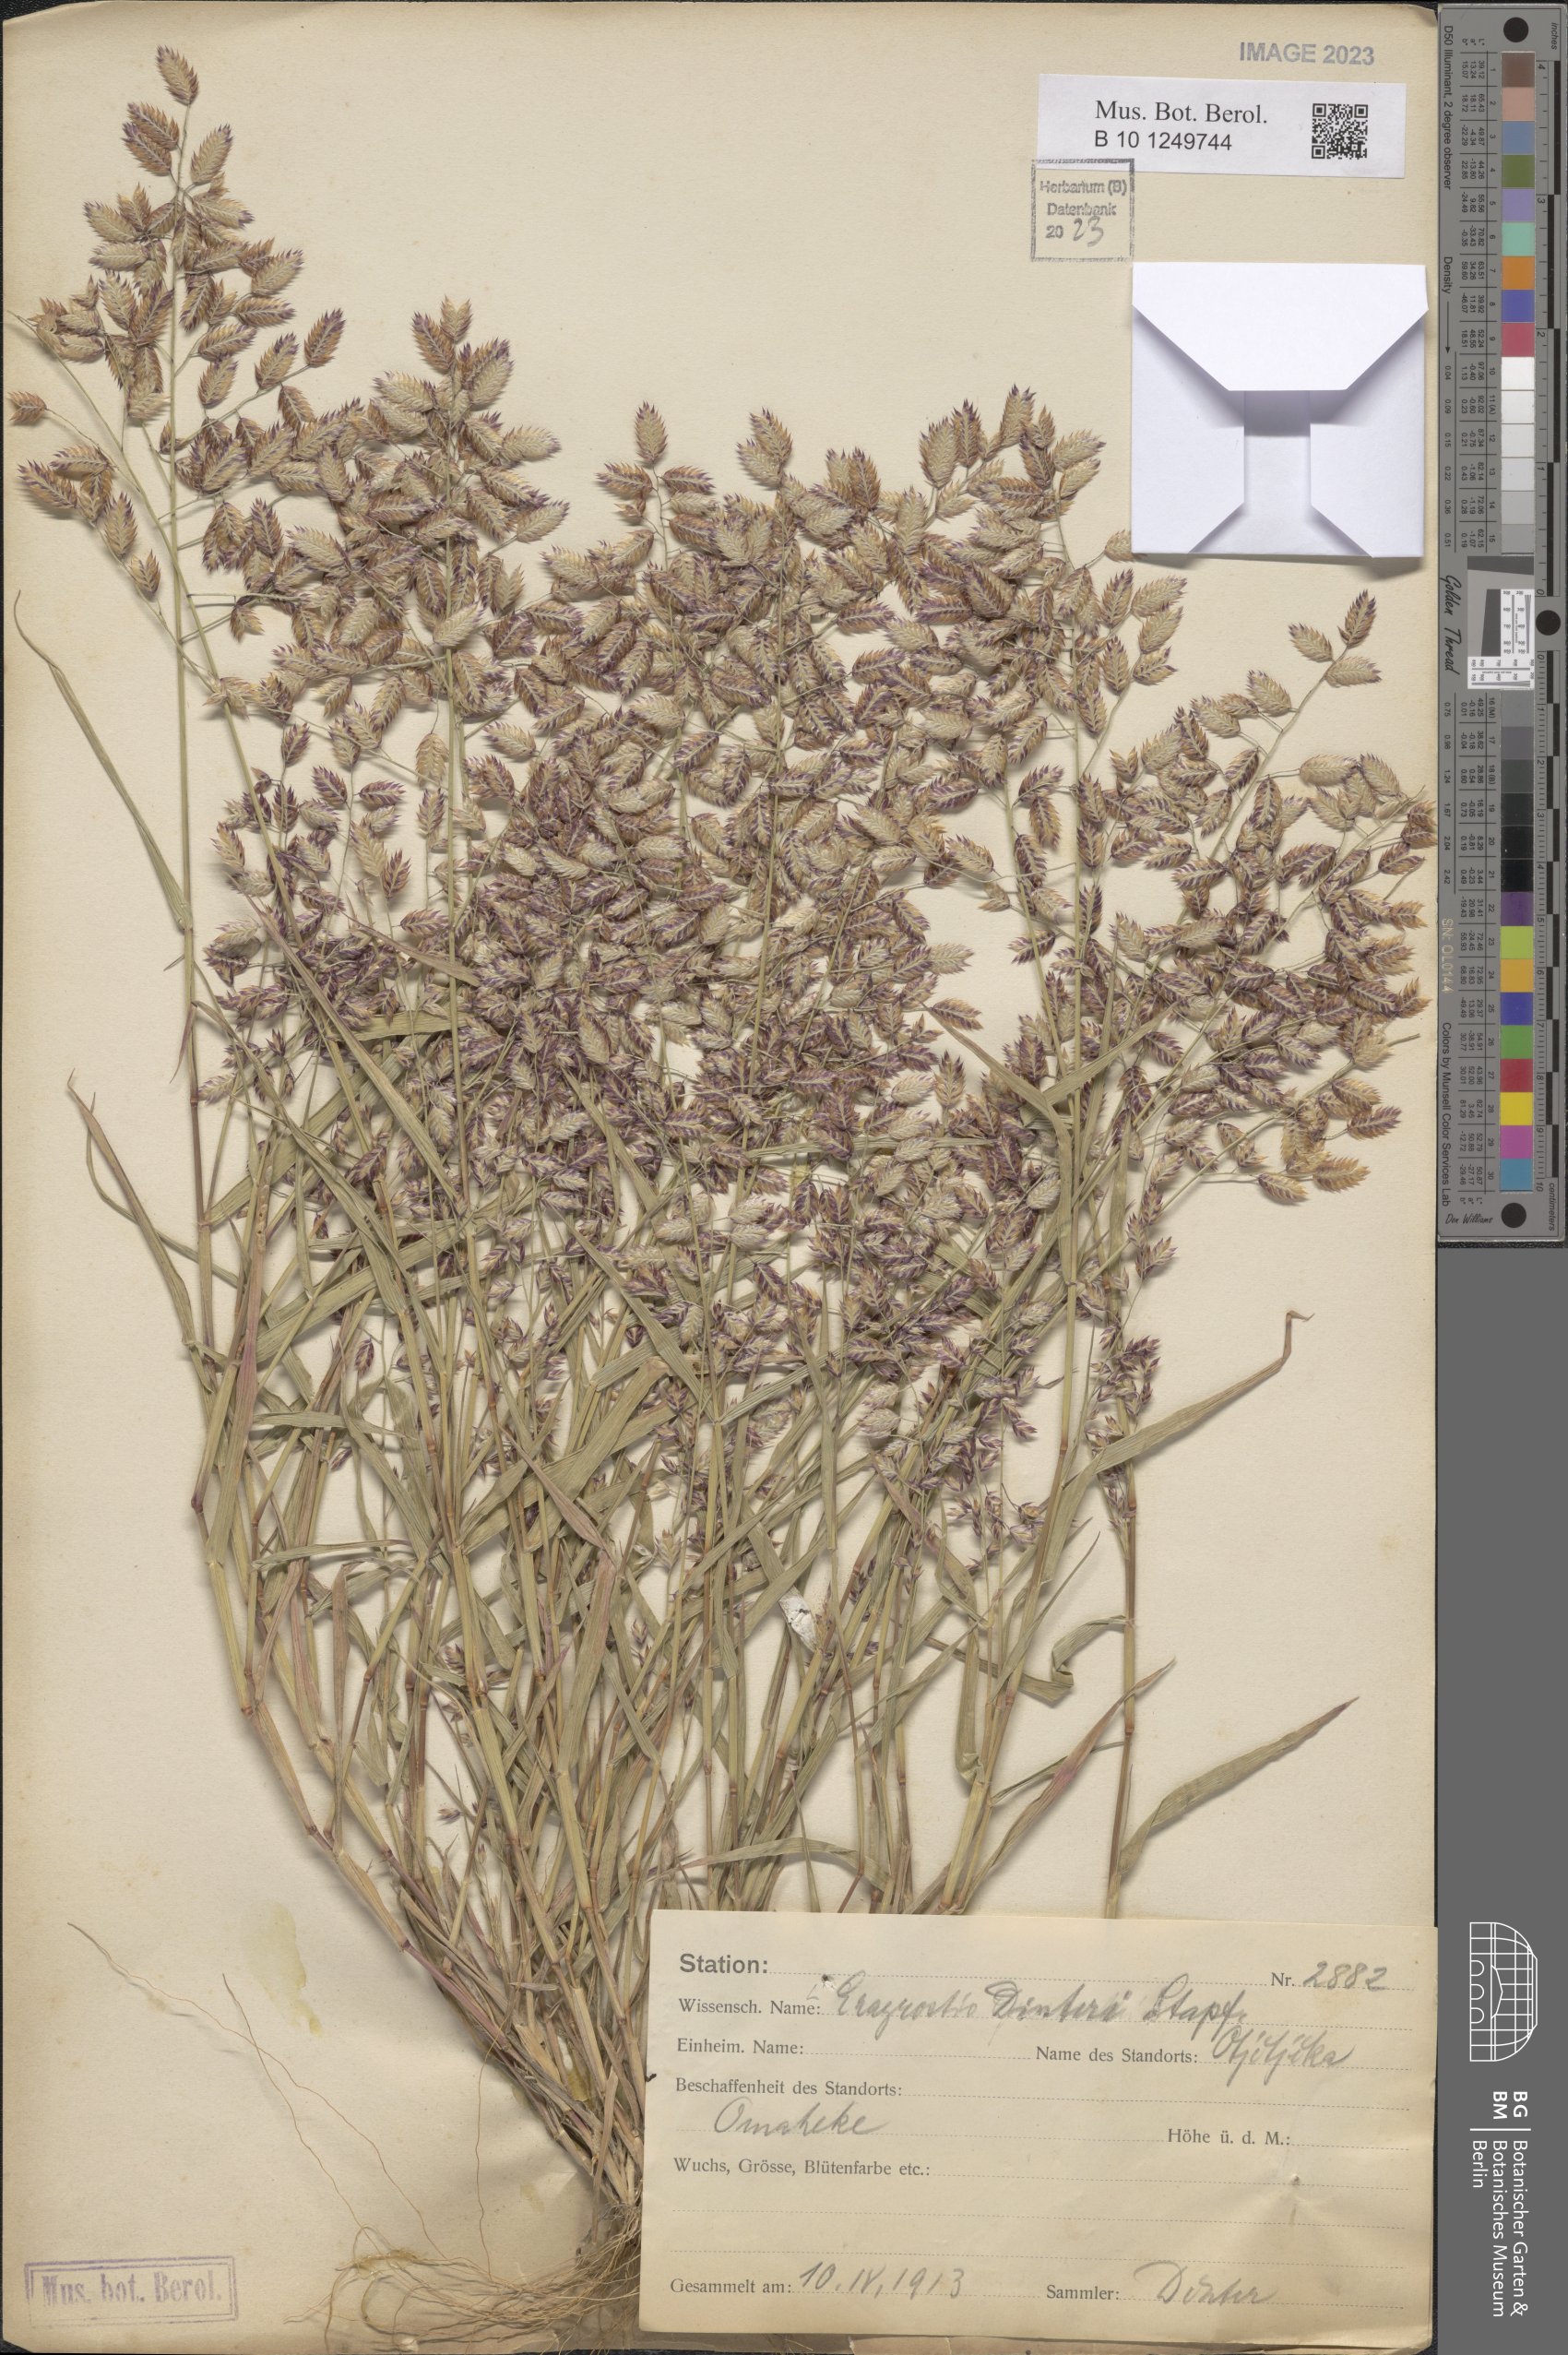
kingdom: Plantae
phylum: Tracheophyta
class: Liliopsida
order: Poales
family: Poaceae
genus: Eragrostis
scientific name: Eragrostis dinteri
